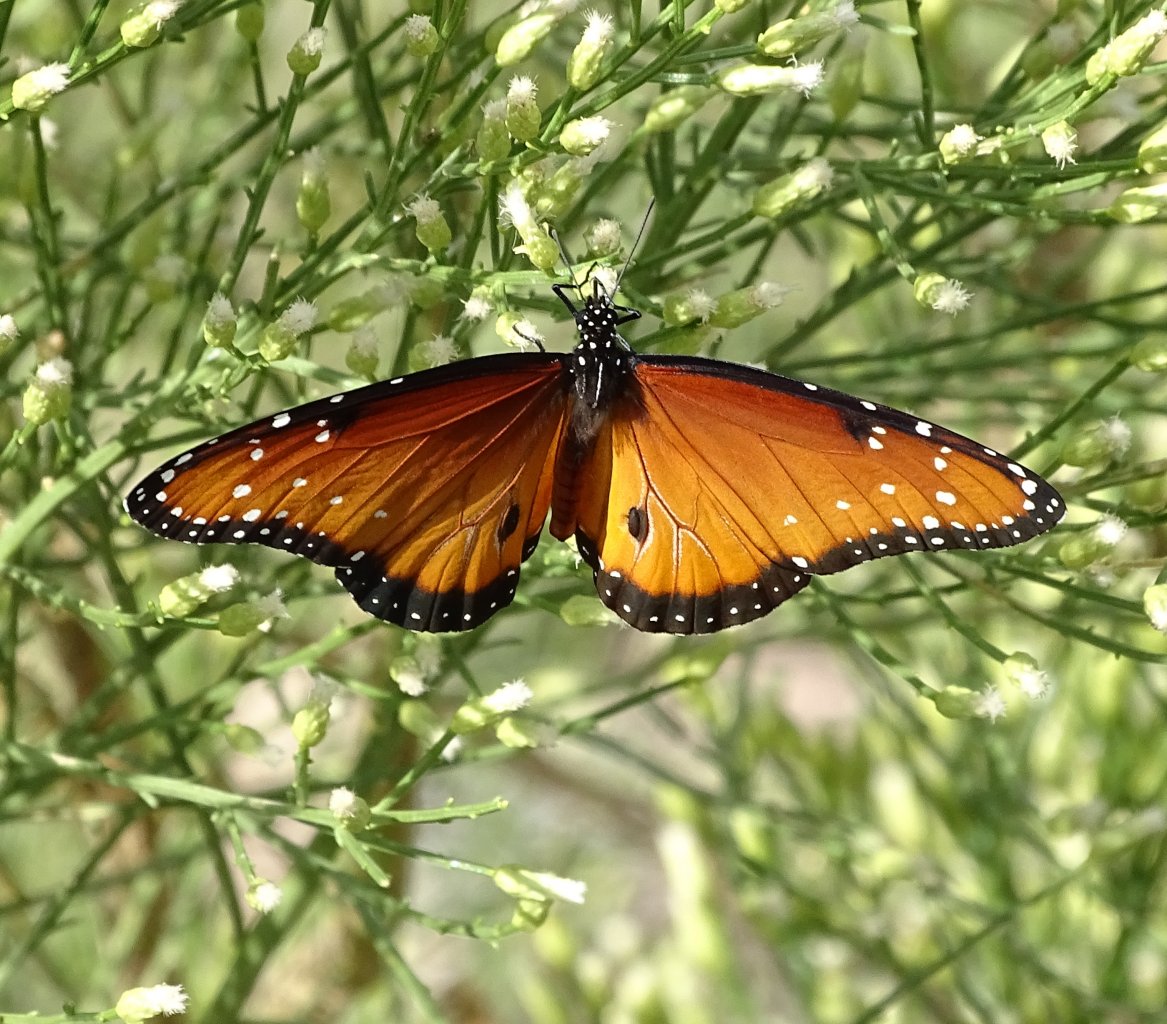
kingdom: Animalia
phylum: Arthropoda
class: Insecta
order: Lepidoptera
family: Nymphalidae
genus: Danaus
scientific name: Danaus gilippus
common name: Queen
